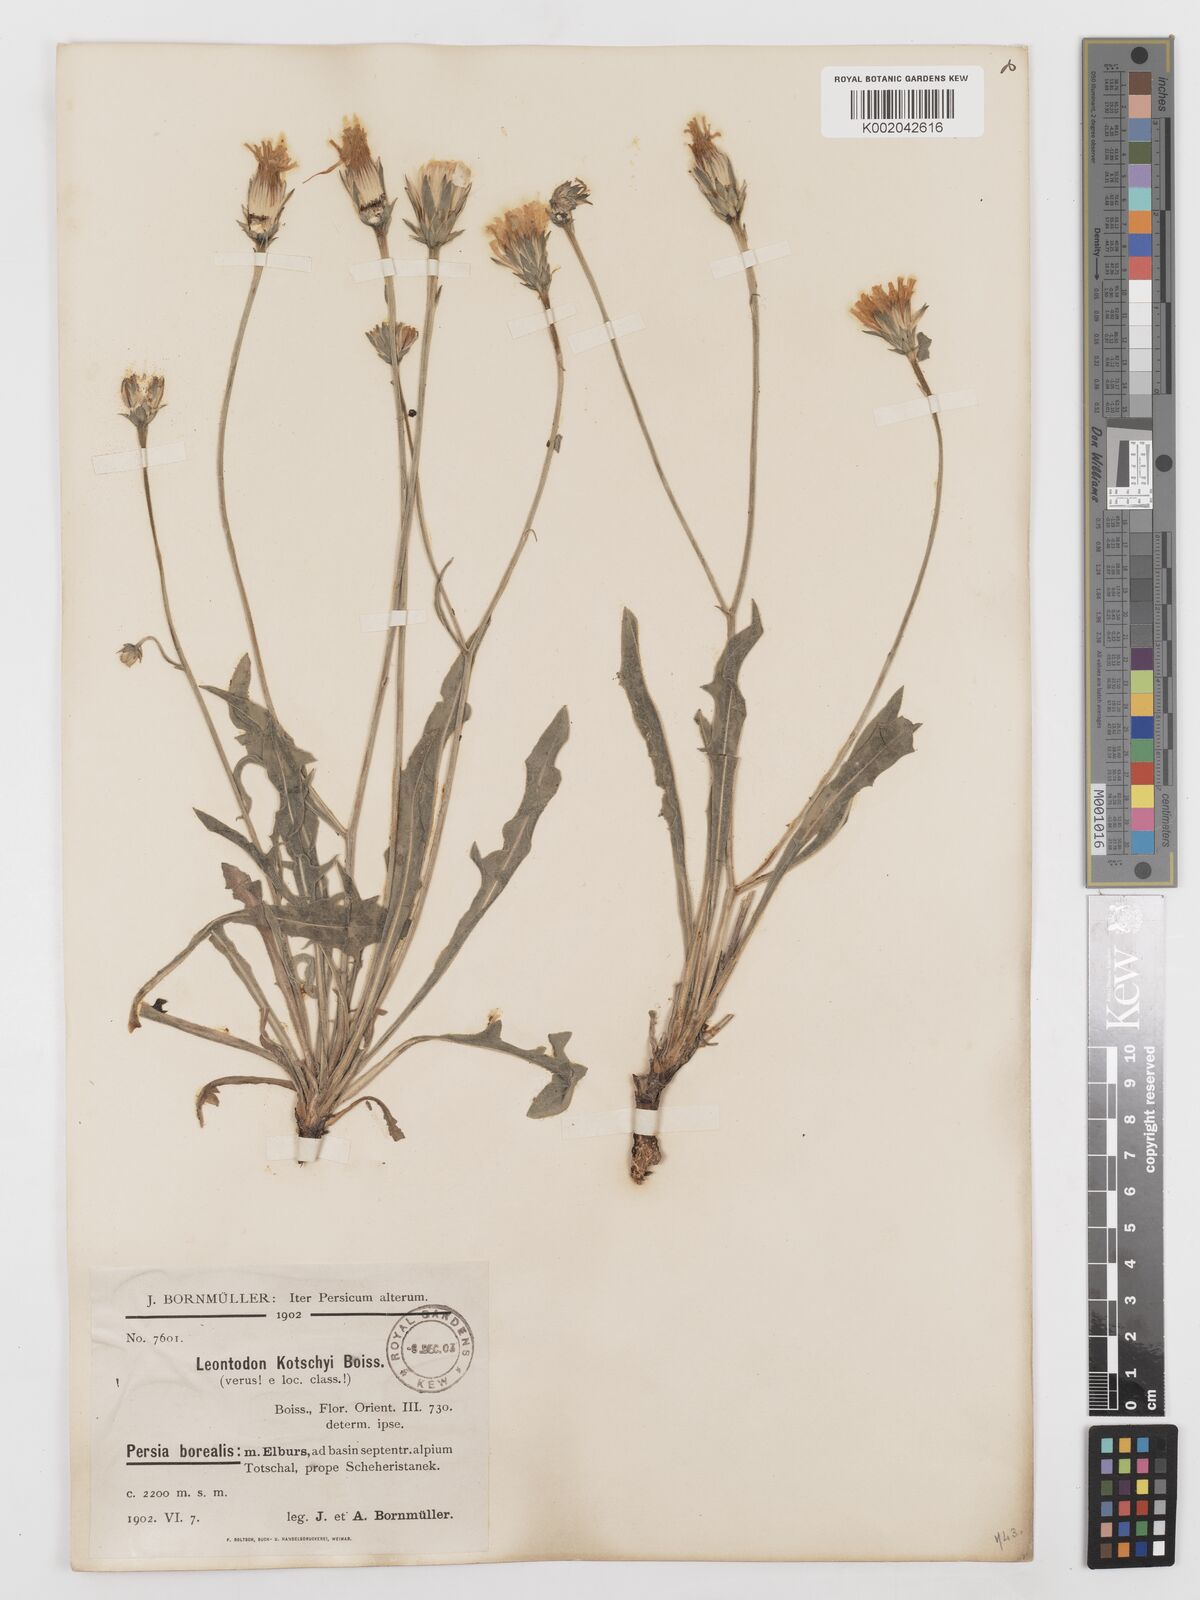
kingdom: Plantae
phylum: Tracheophyta
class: Magnoliopsida
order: Asterales
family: Asteraceae
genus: Leontodon
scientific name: Leontodon
